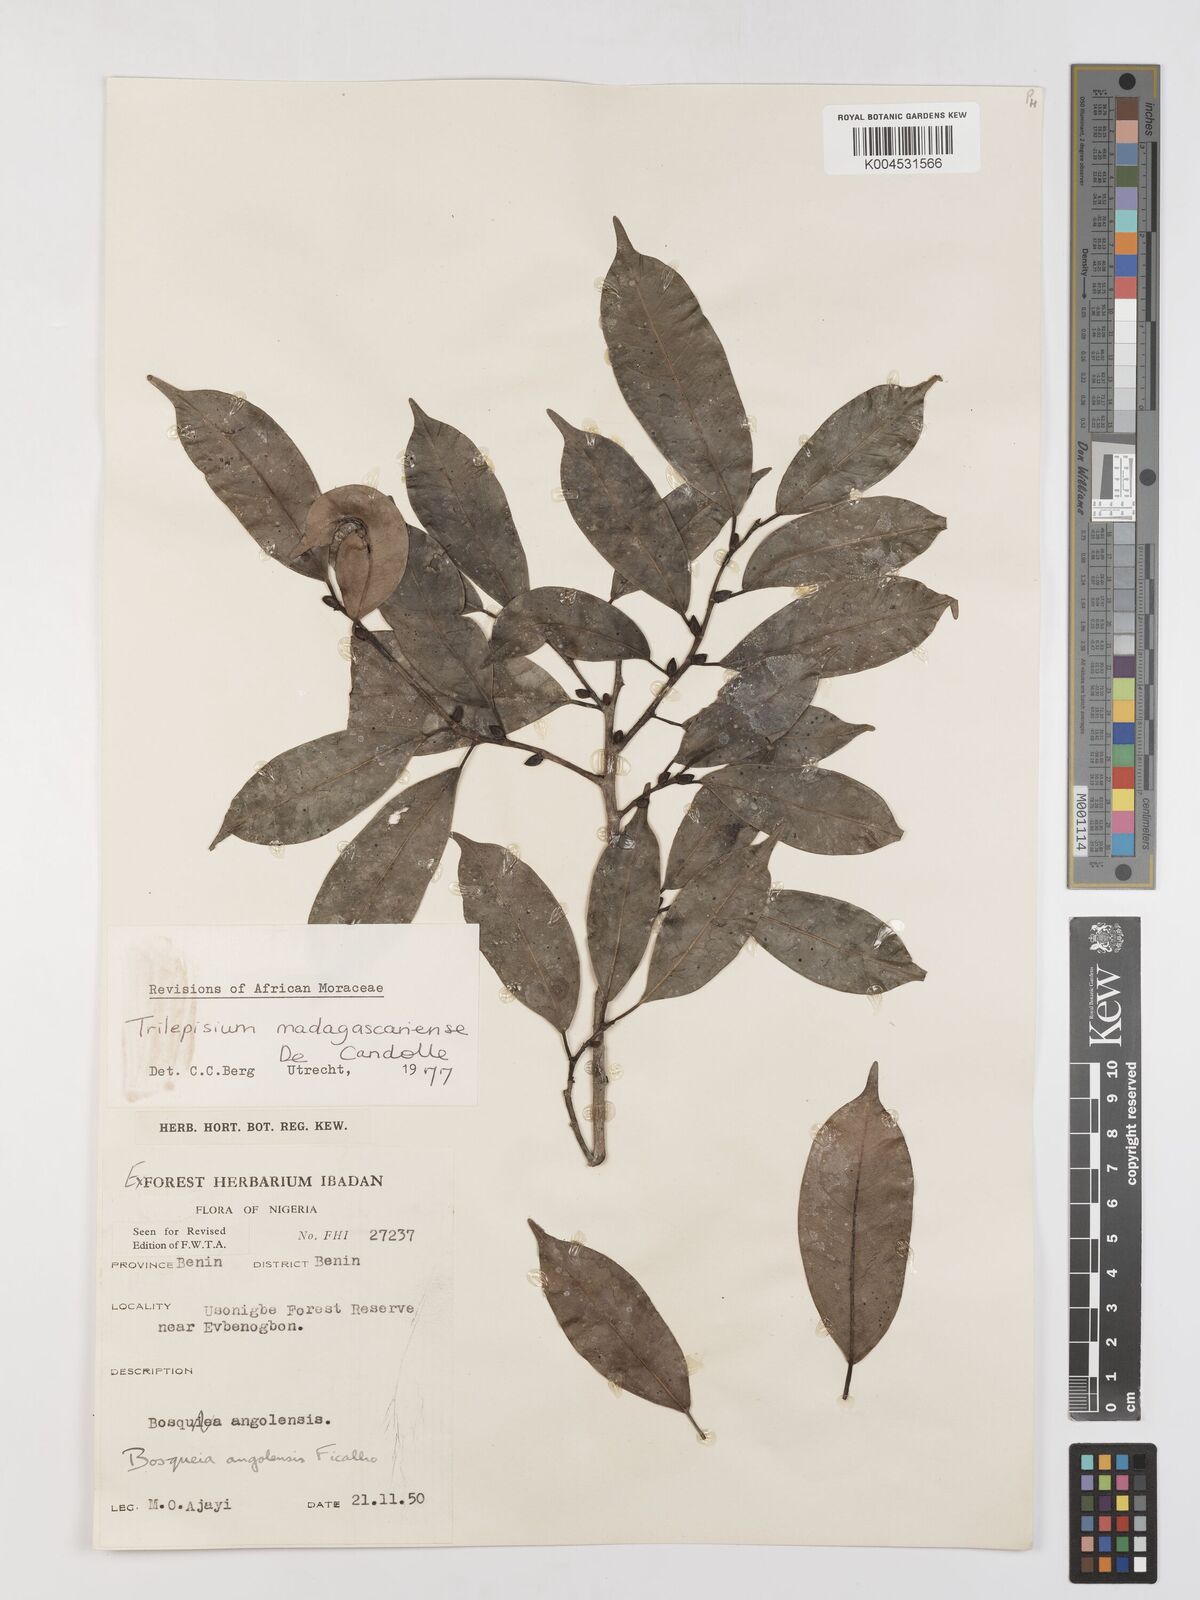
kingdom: Plantae
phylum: Tracheophyta
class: Magnoliopsida
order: Rosales
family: Moraceae
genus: Trilepisium
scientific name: Trilepisium madagascariense
